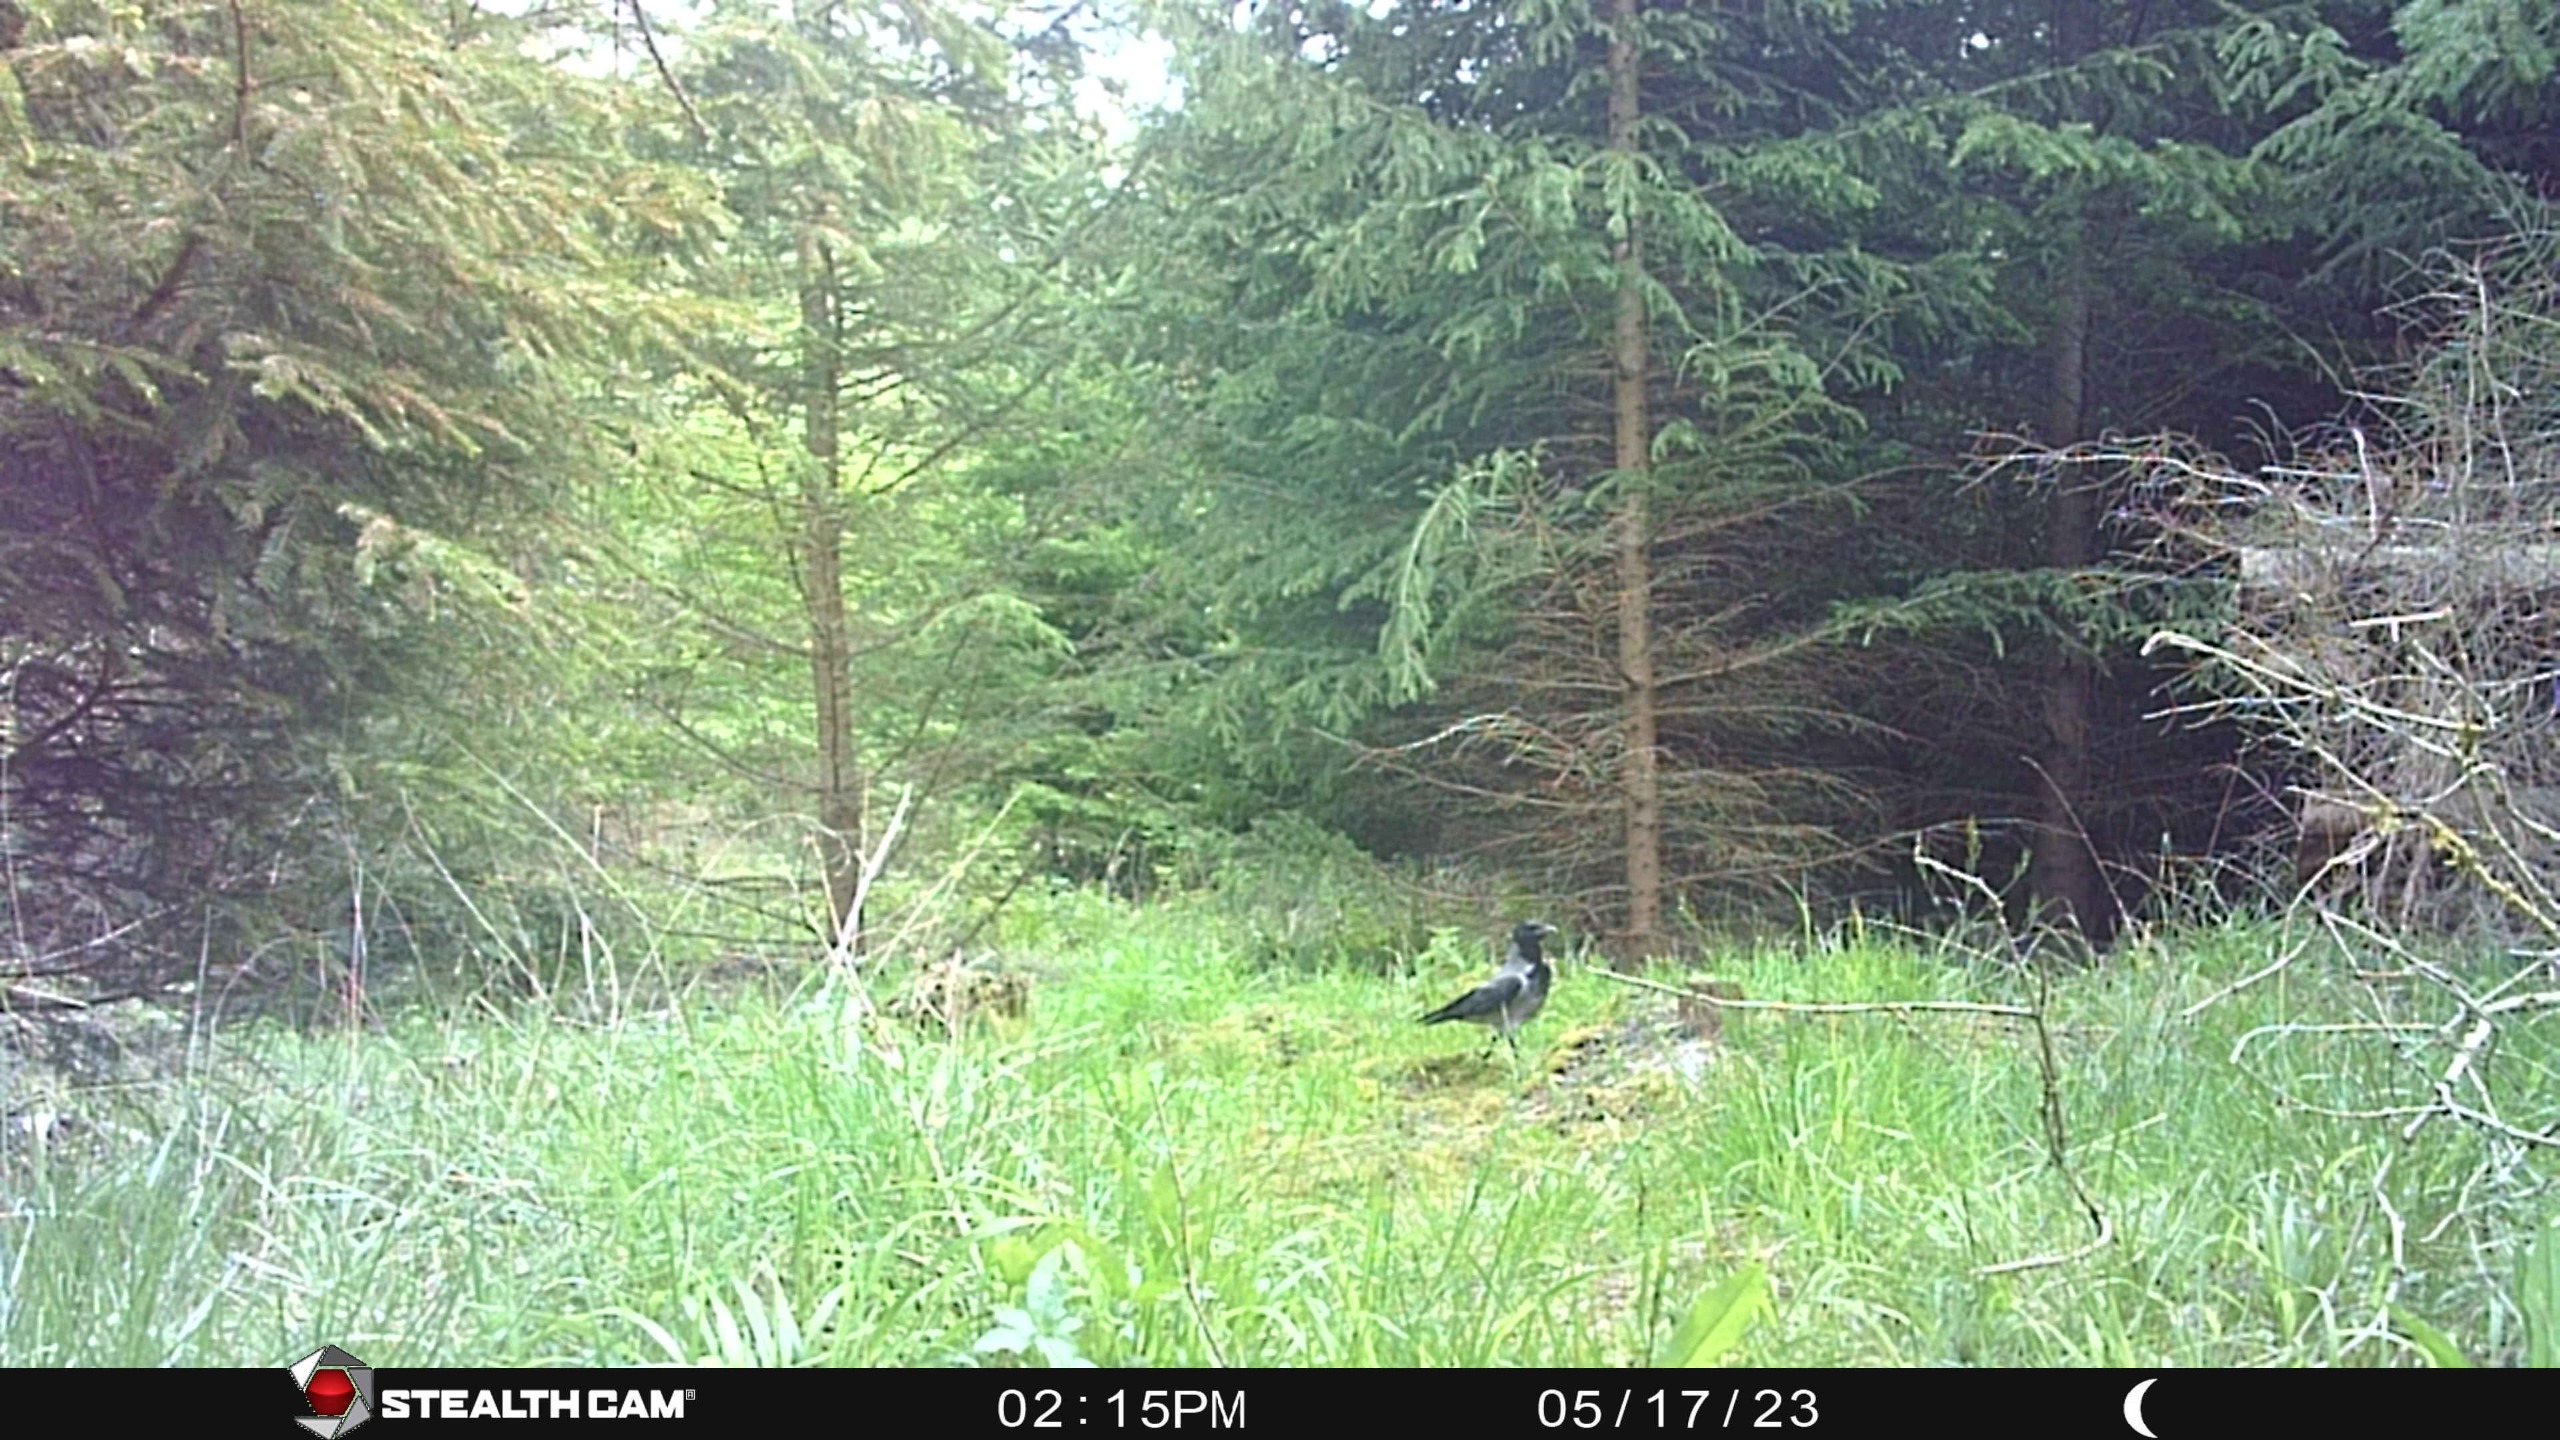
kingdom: Animalia
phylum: Chordata
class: Aves
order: Passeriformes
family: Corvidae
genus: Corvus
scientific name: Corvus cornix
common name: Gråkrage
